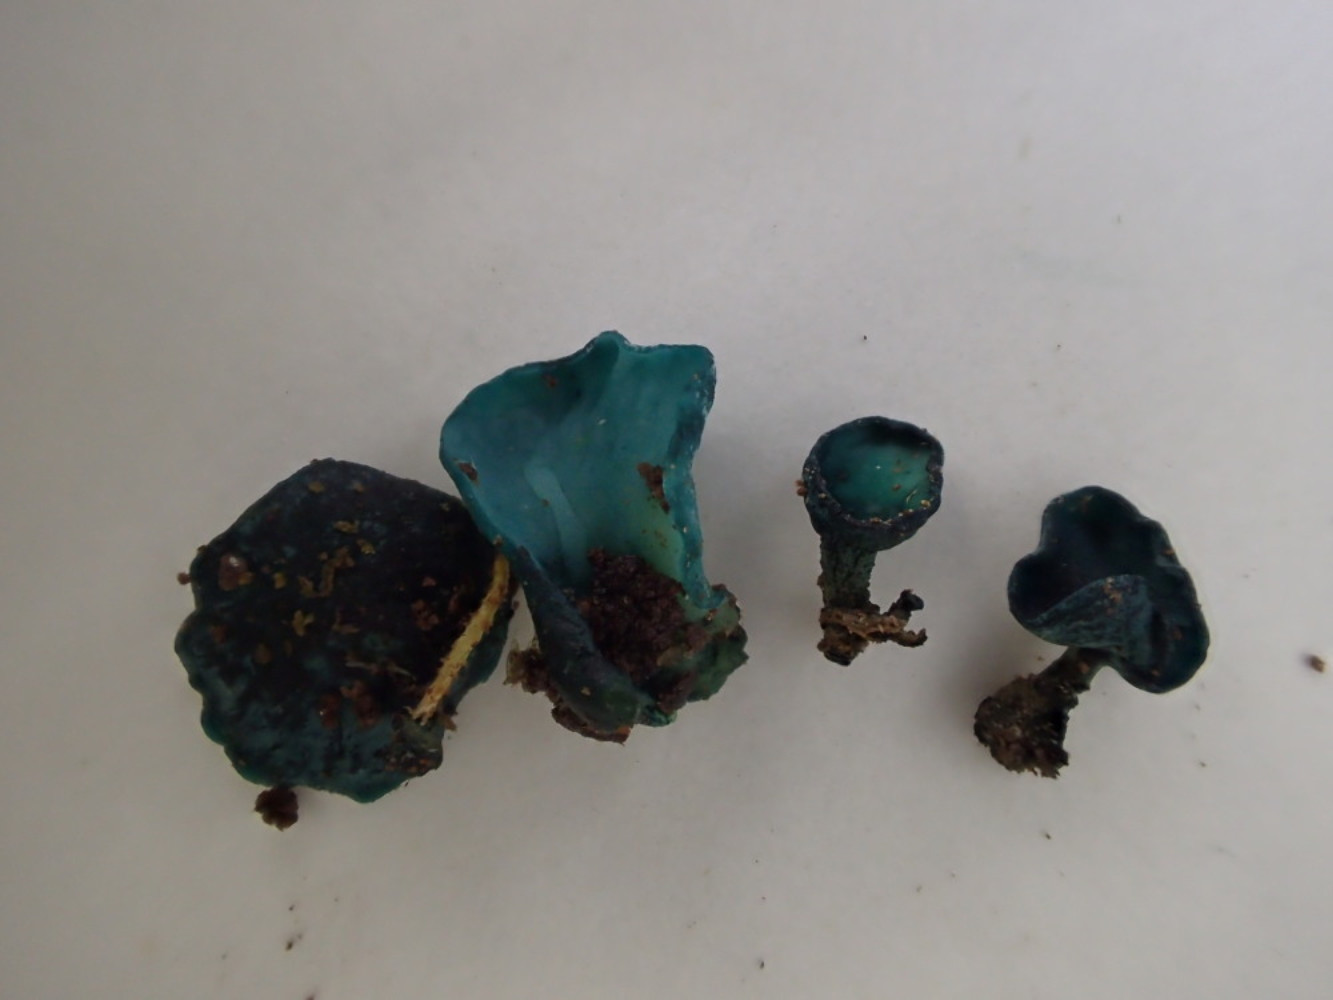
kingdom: Fungi
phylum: Ascomycota
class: Leotiomycetes
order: Helotiales
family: Chlorociboriaceae
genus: Chlorociboria
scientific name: Chlorociboria aeruginascens
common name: almindelig grønskive
